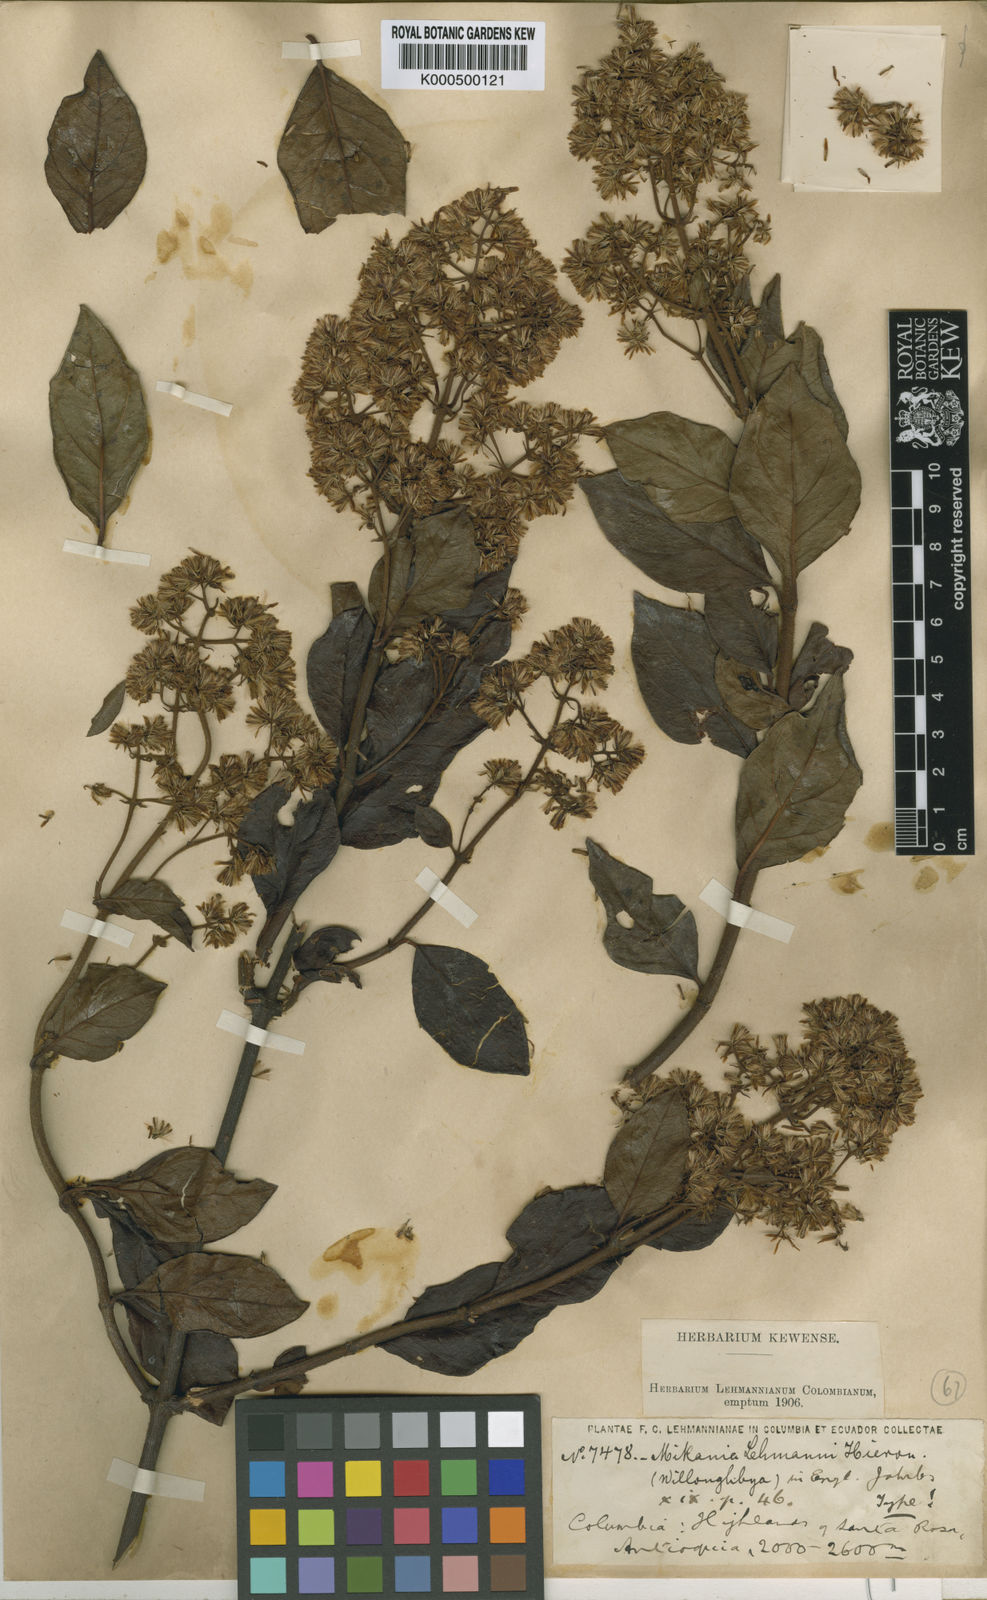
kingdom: Plantae
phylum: Tracheophyta
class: Magnoliopsida
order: Asterales
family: Asteraceae
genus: Mikania
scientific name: Mikania lehmannii
